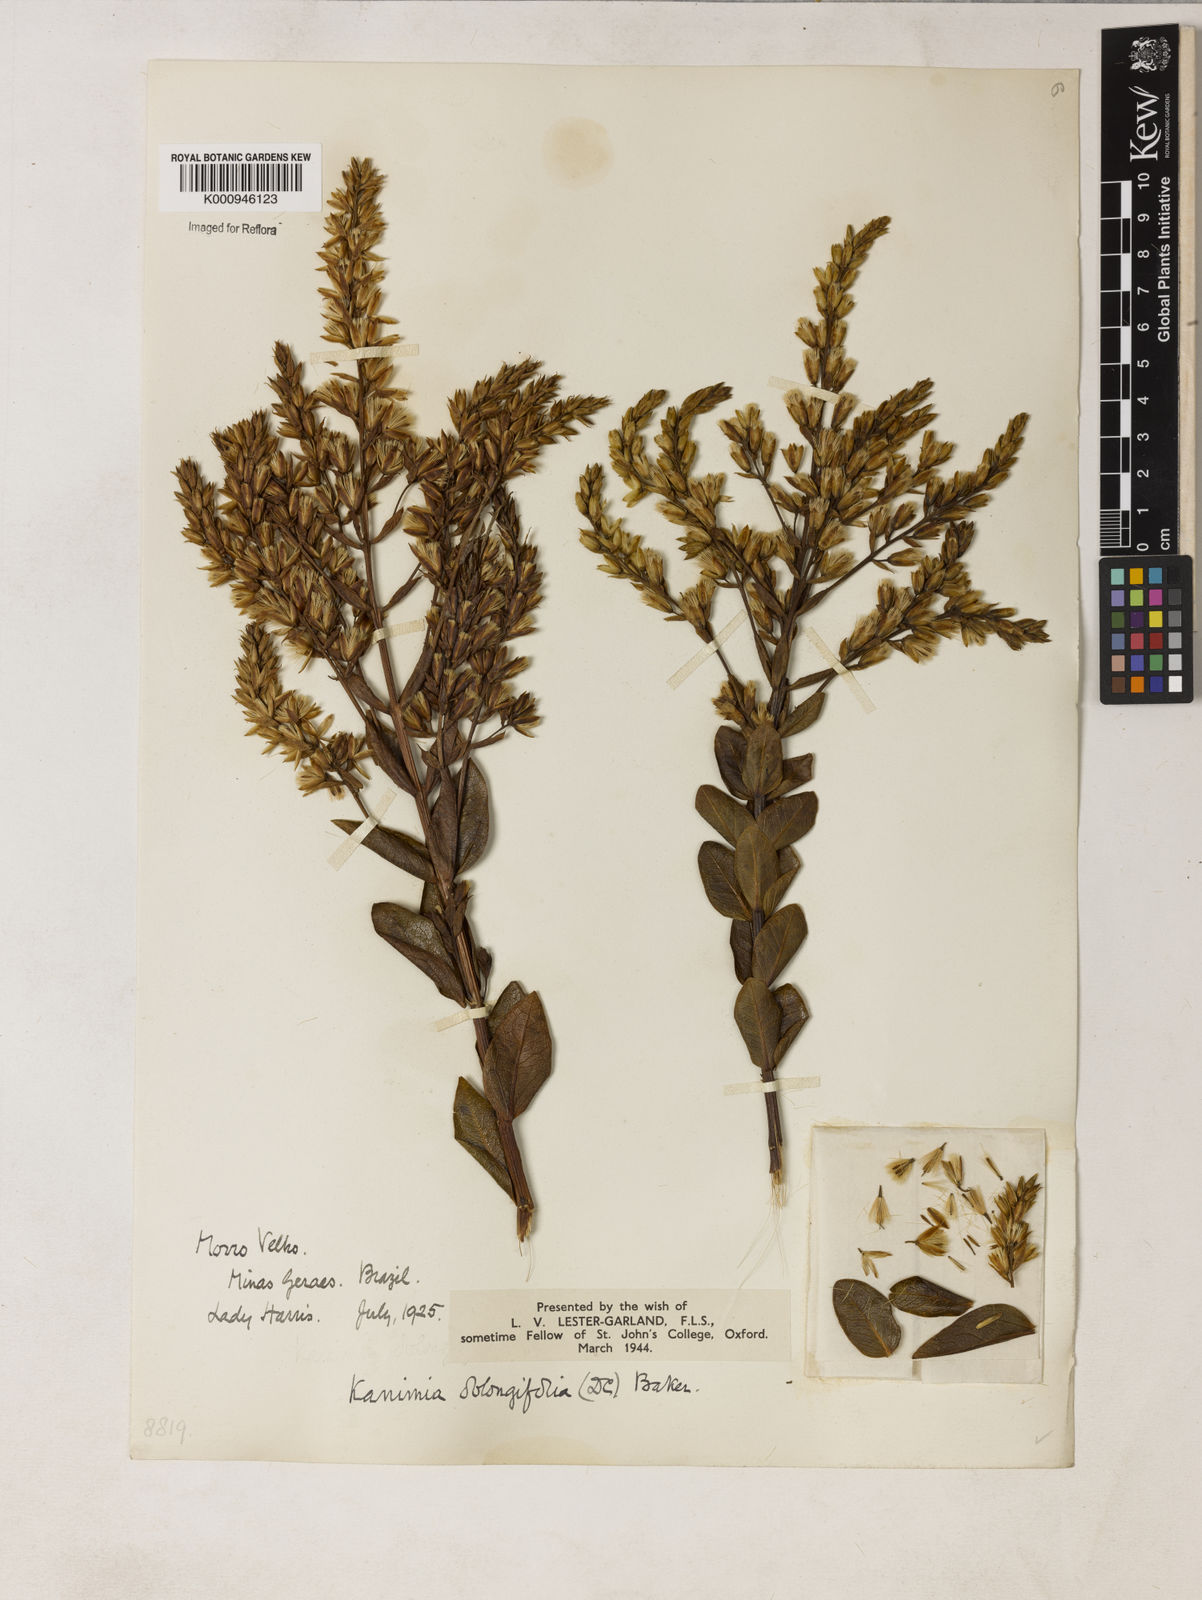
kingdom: Plantae
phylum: Tracheophyta
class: Magnoliopsida
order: Asterales
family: Asteraceae
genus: Mikania
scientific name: Mikania oblongifolia
